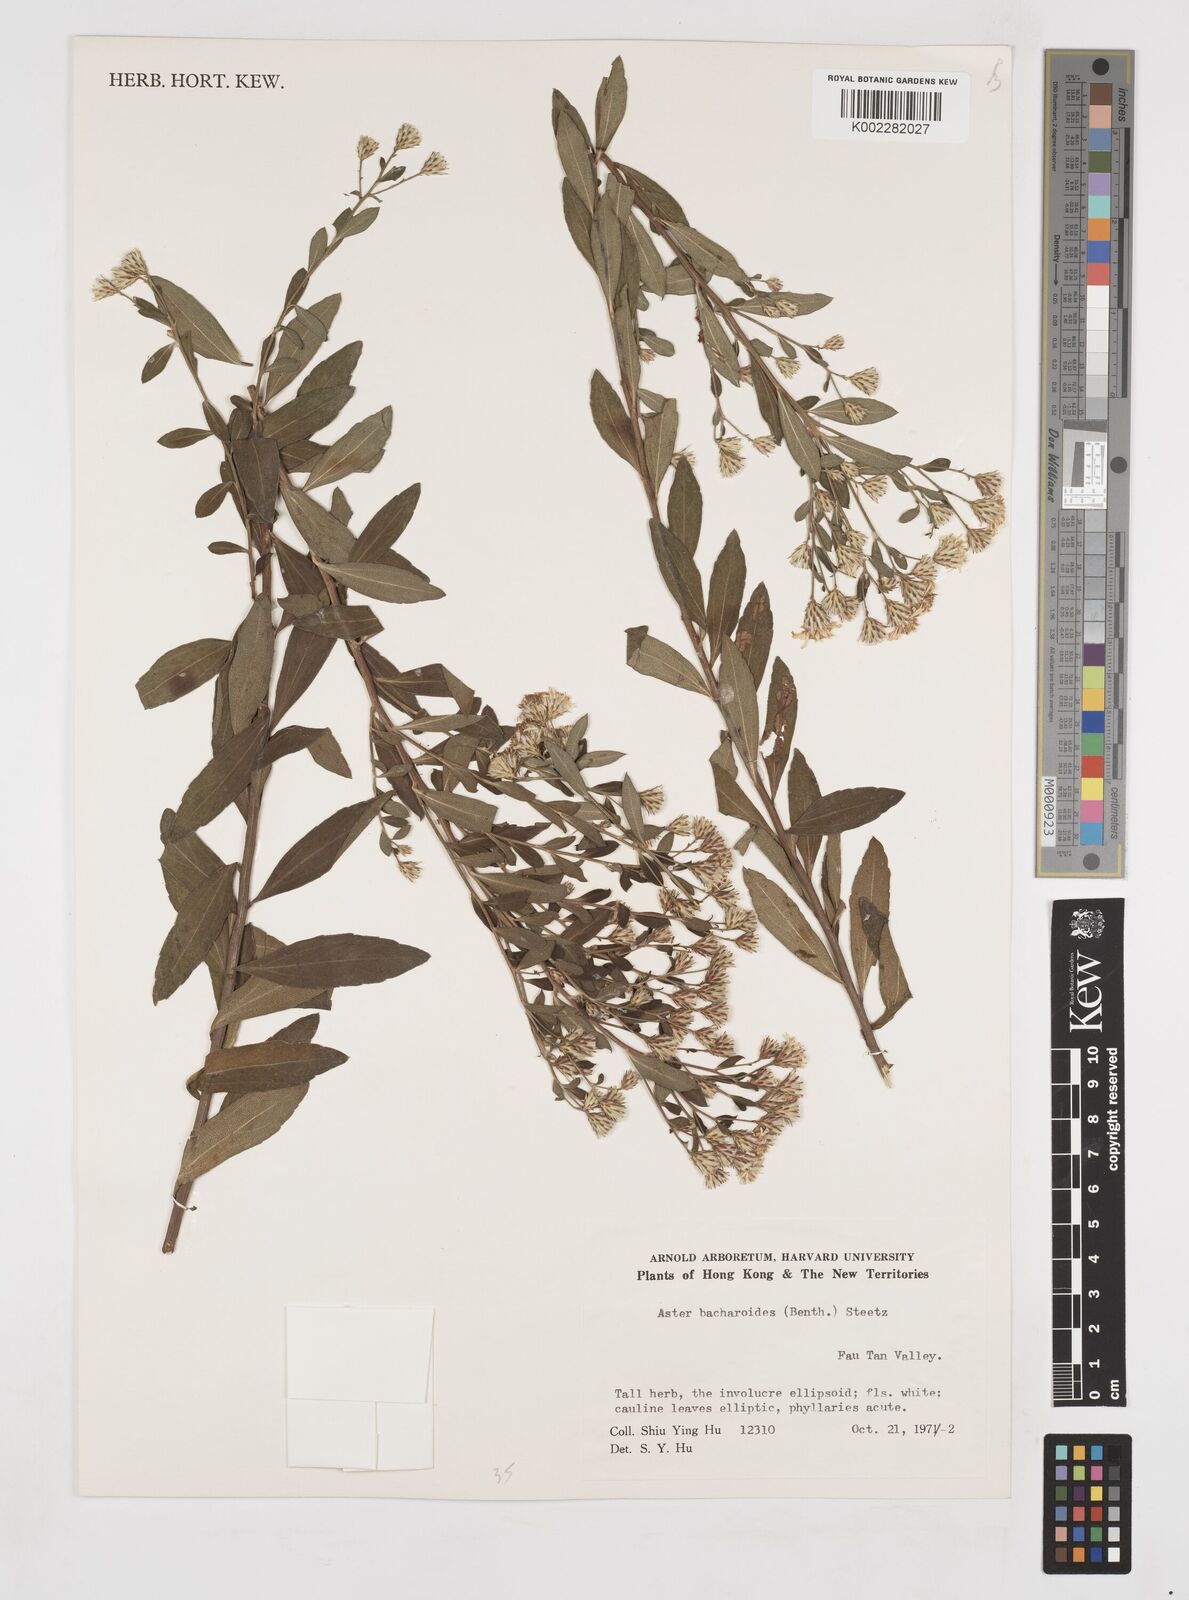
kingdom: Plantae
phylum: Tracheophyta
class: Magnoliopsida
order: Asterales
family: Asteraceae
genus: Aster
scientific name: Aster baccharoides
